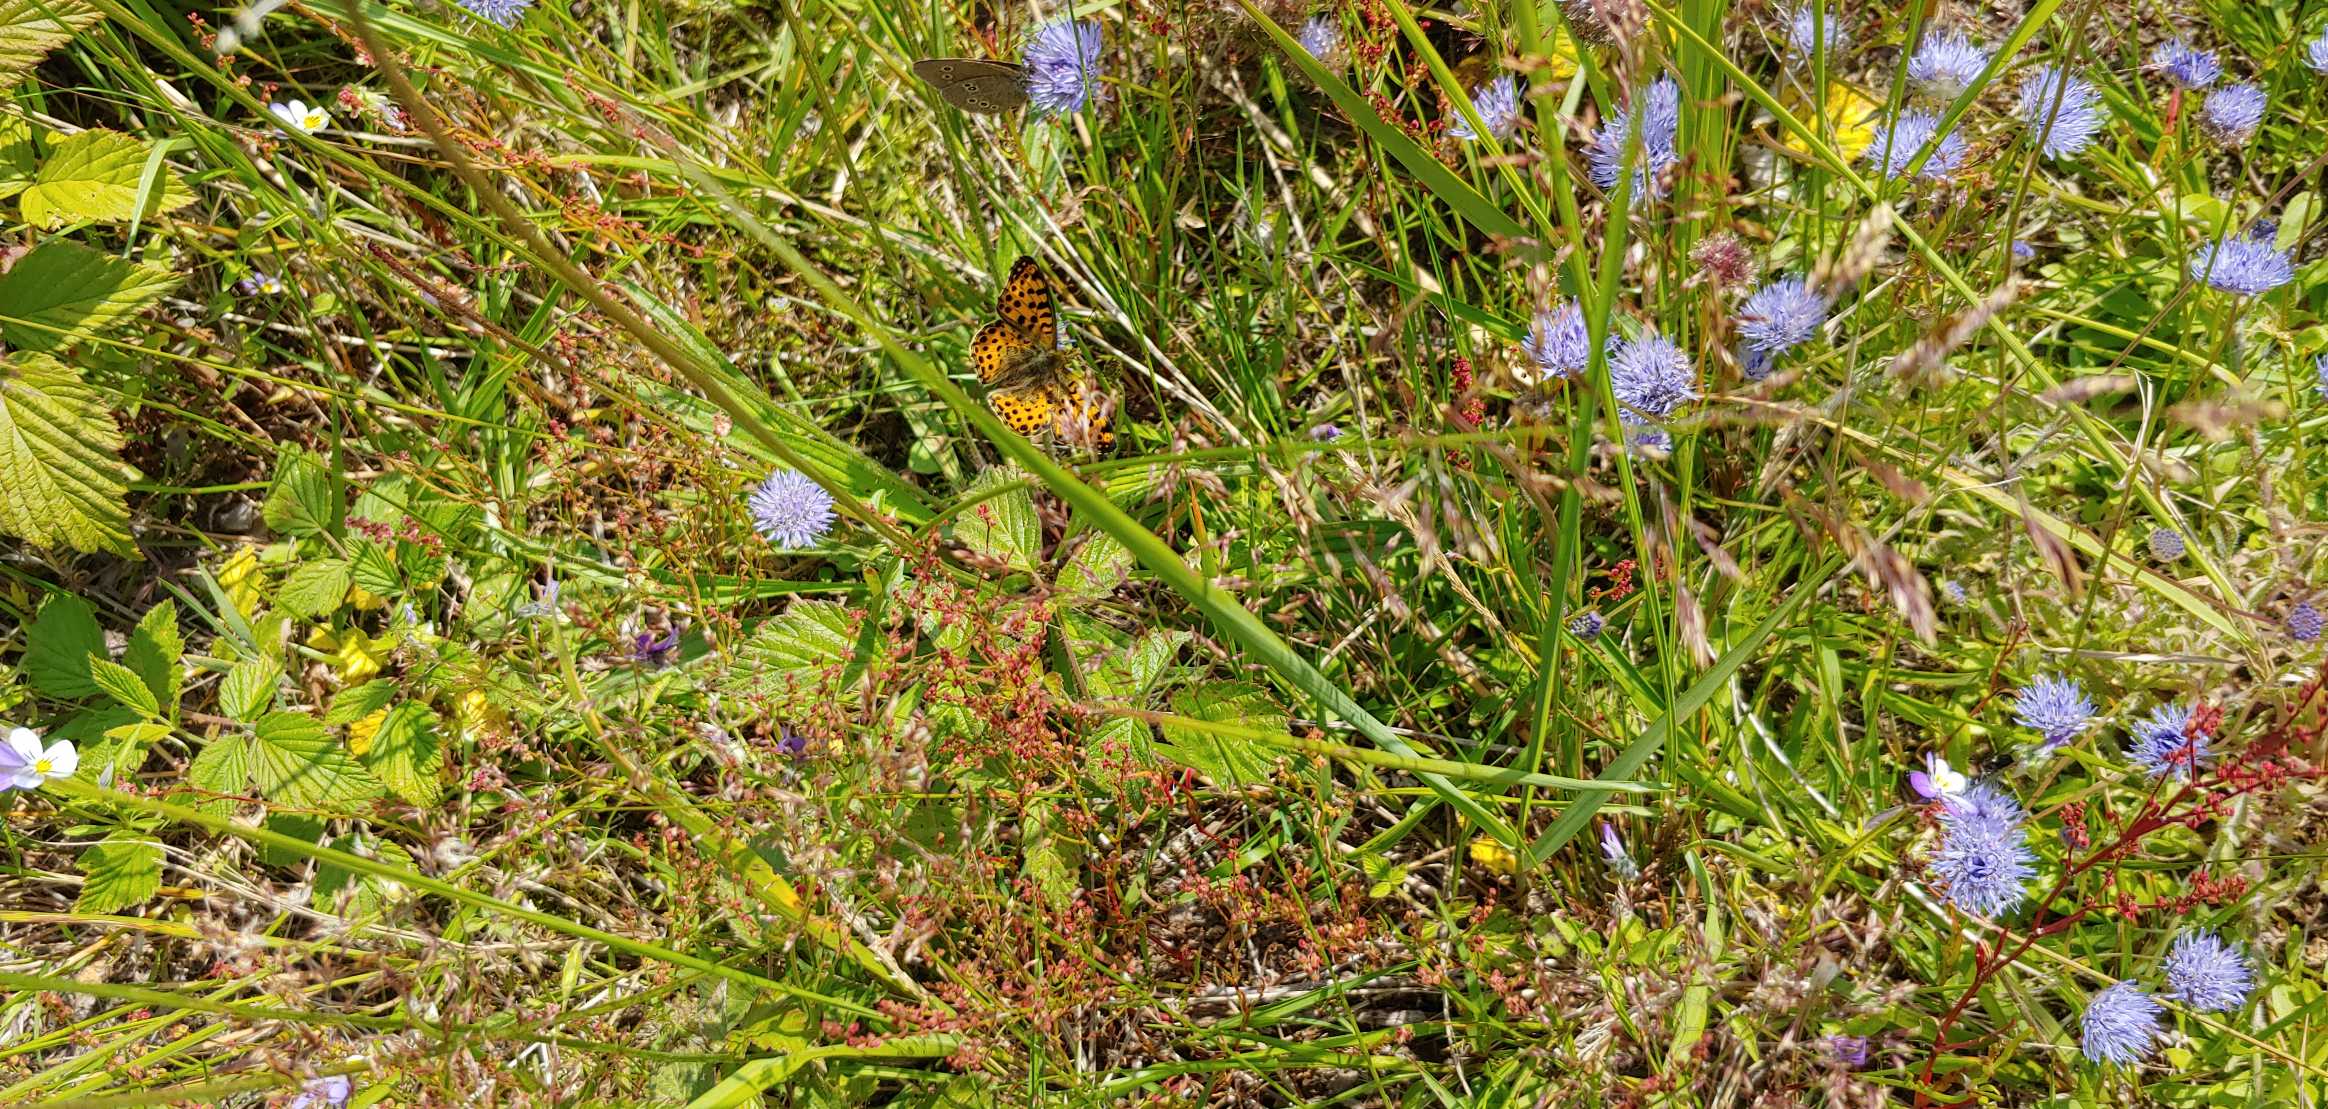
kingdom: Animalia
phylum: Arthropoda
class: Insecta
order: Lepidoptera
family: Nymphalidae
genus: Issoria
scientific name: Issoria lathonia
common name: Storplettet perlemorsommerfugl
